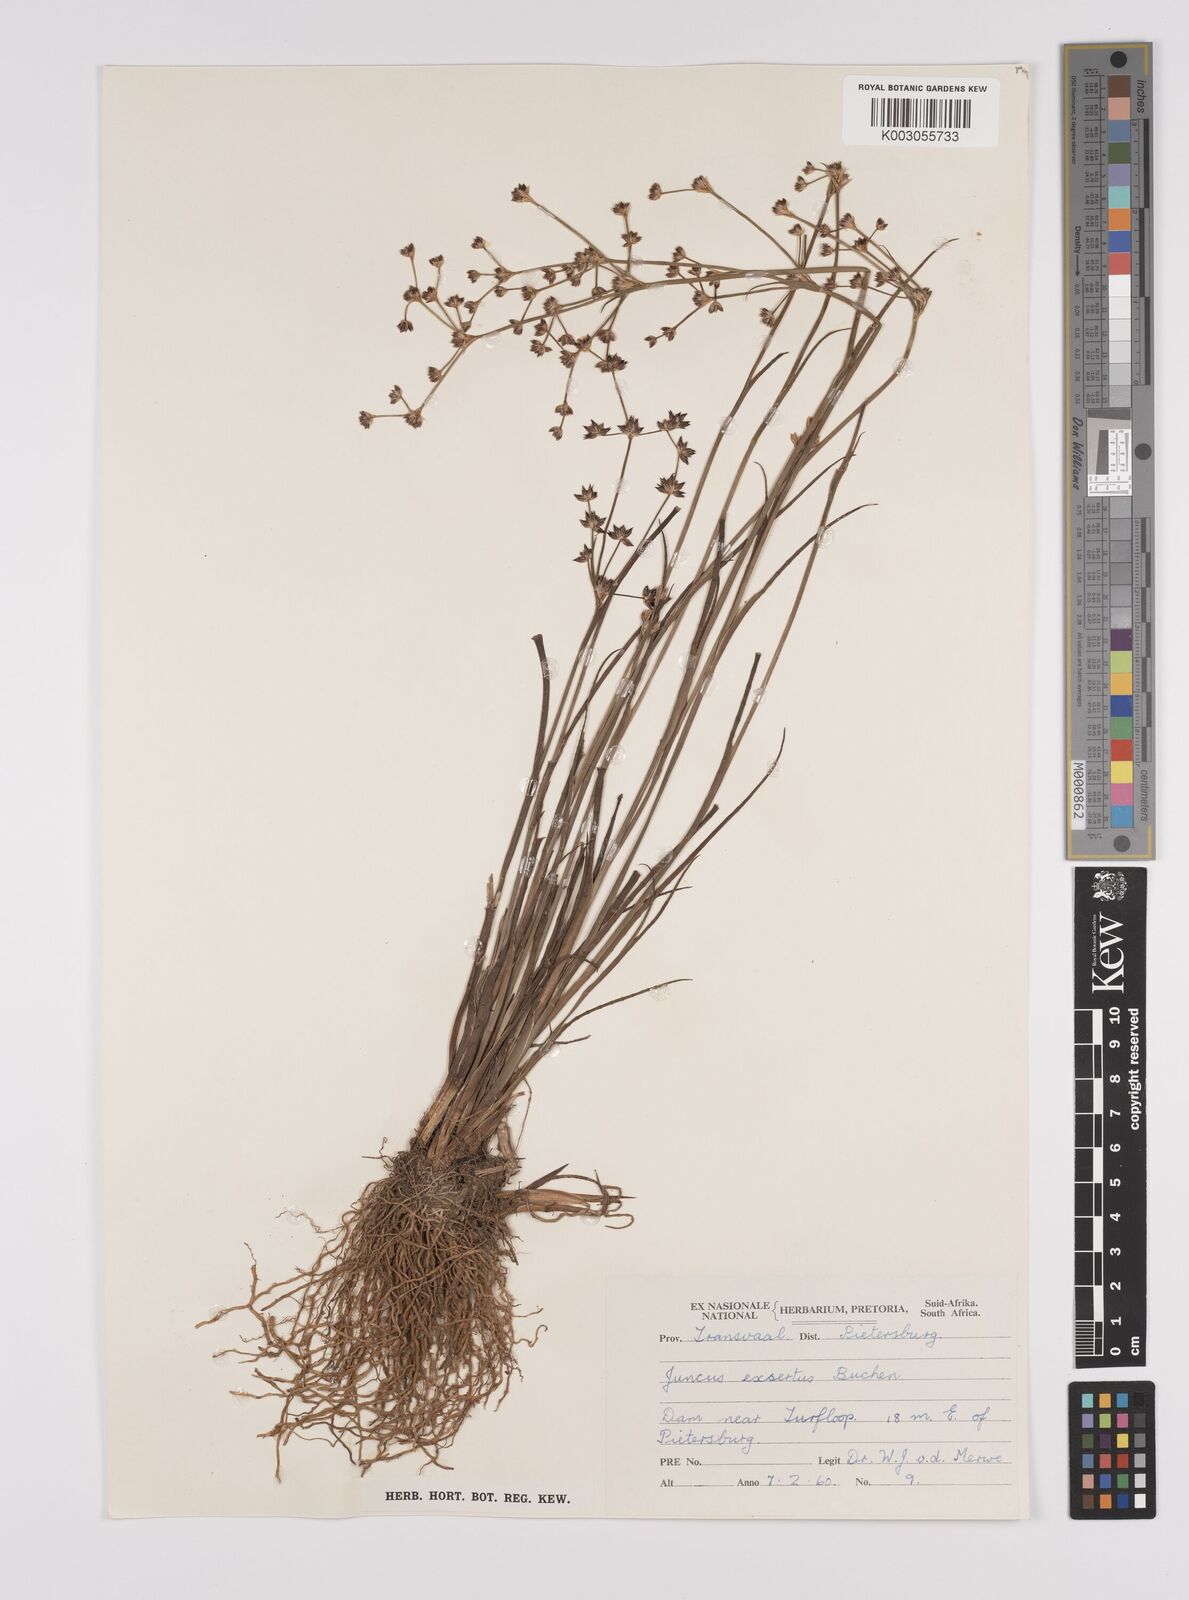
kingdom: Plantae
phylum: Tracheophyta
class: Liliopsida
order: Poales
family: Juncaceae
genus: Juncus
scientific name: Juncus exsertus
